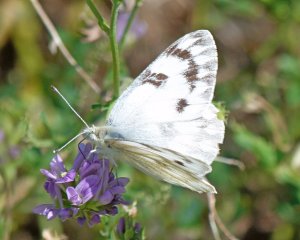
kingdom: Animalia
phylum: Arthropoda
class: Insecta
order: Lepidoptera
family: Pieridae
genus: Pontia
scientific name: Pontia occidentalis
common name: Western White
